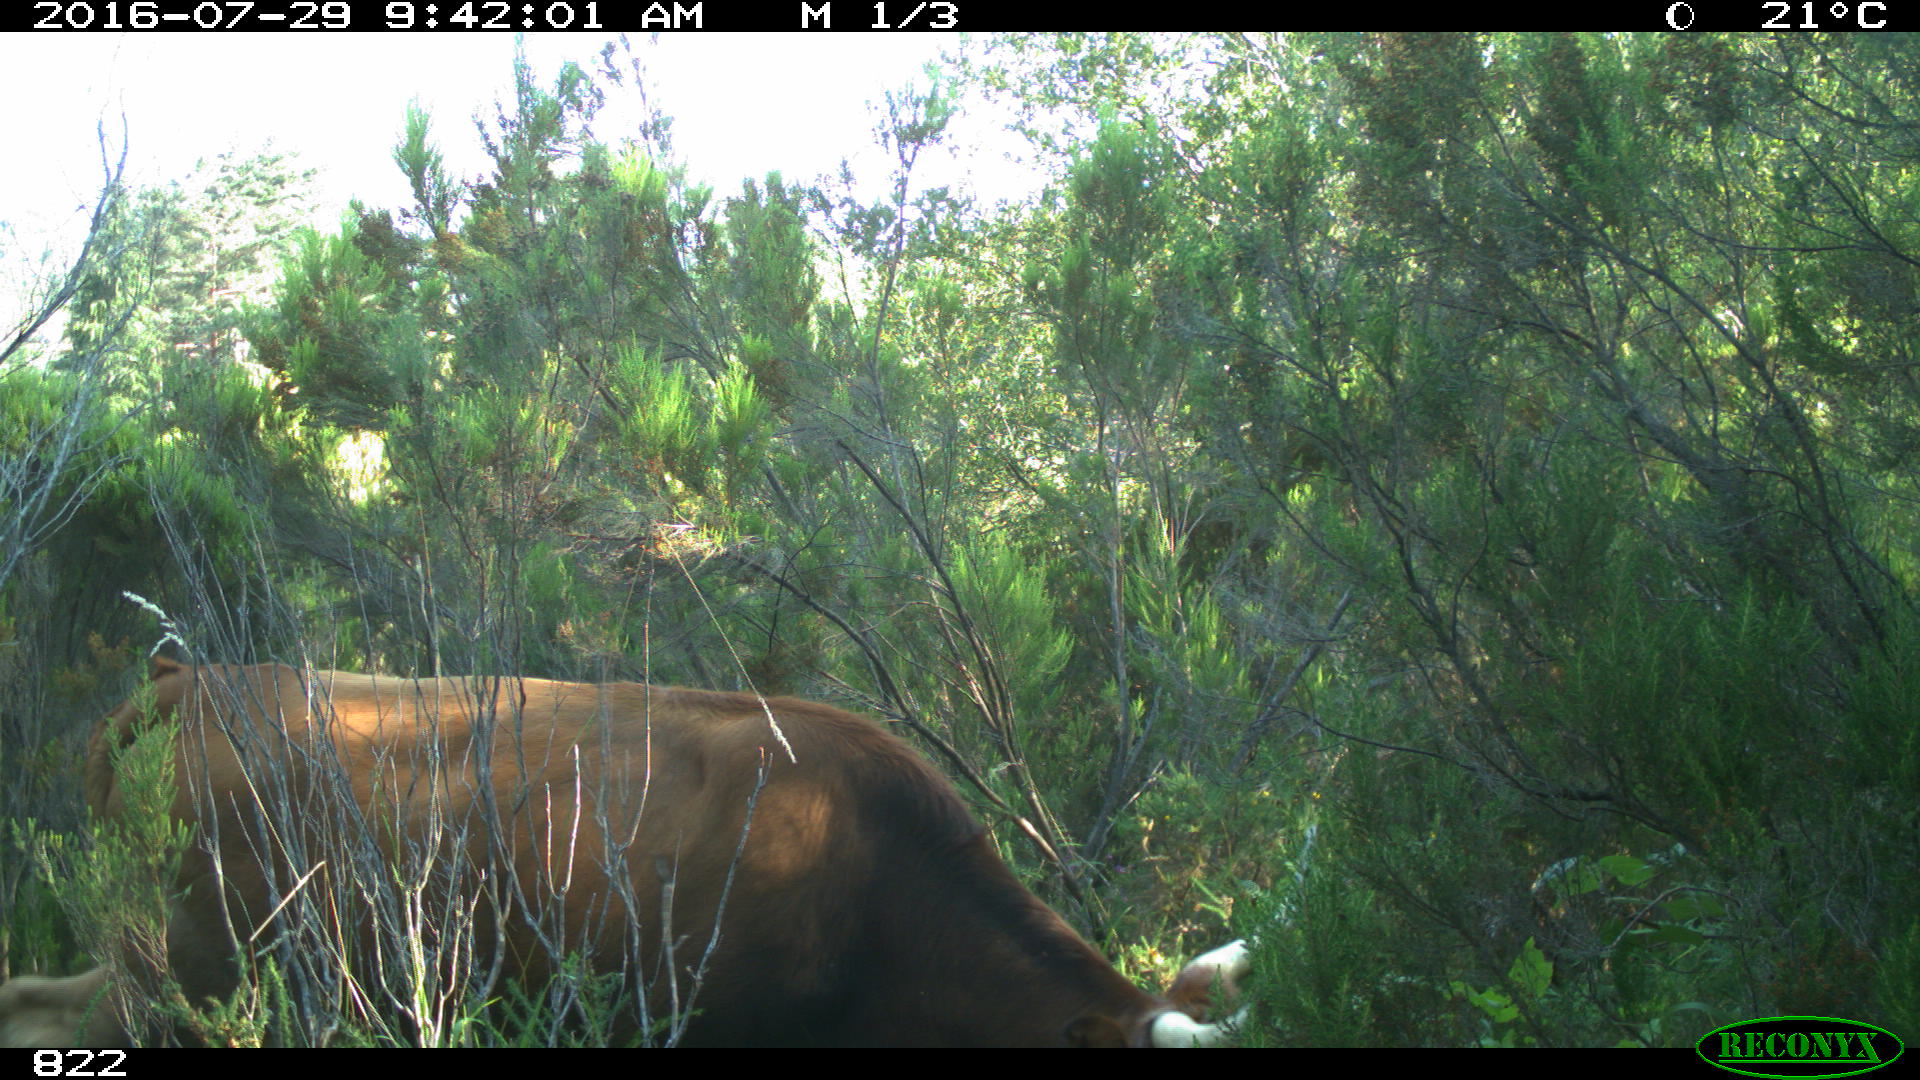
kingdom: Animalia
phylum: Chordata
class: Mammalia
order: Artiodactyla
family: Bovidae
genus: Bos
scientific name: Bos taurus
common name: Domesticated cattle
